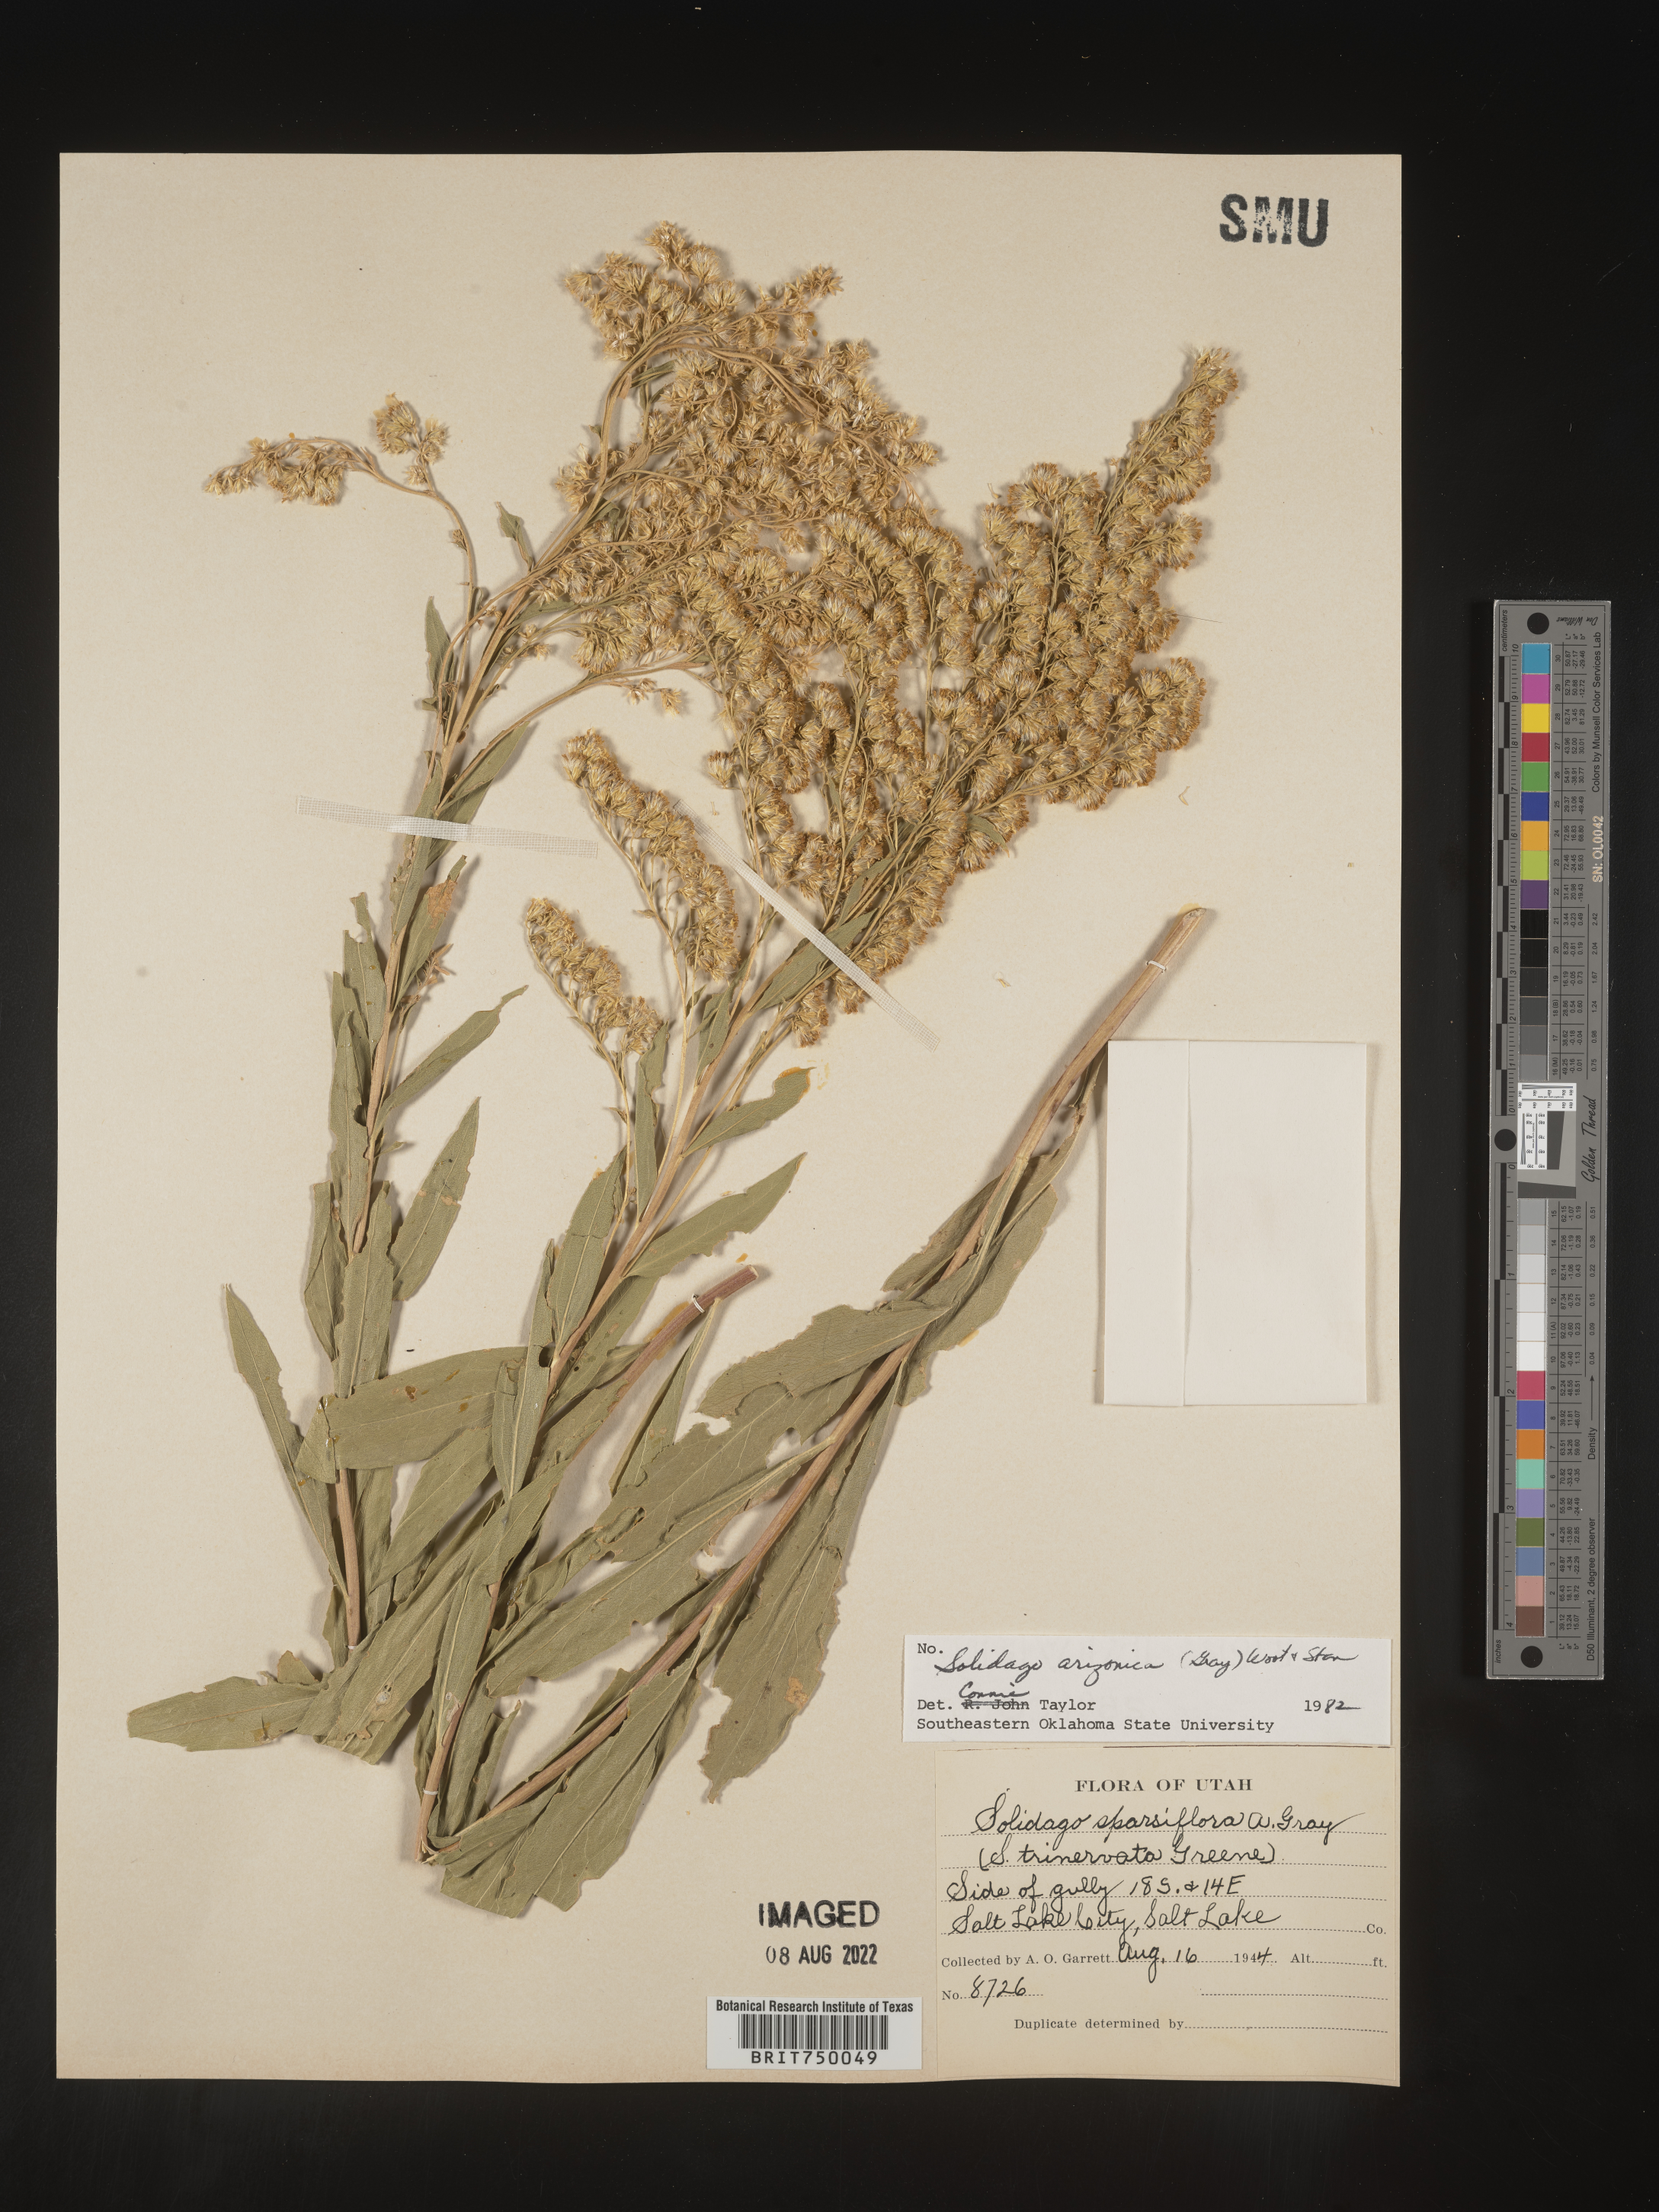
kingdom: Plantae
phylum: Tracheophyta
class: Magnoliopsida
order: Asterales
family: Asteraceae
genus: Solidago
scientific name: Solidago garrettii
